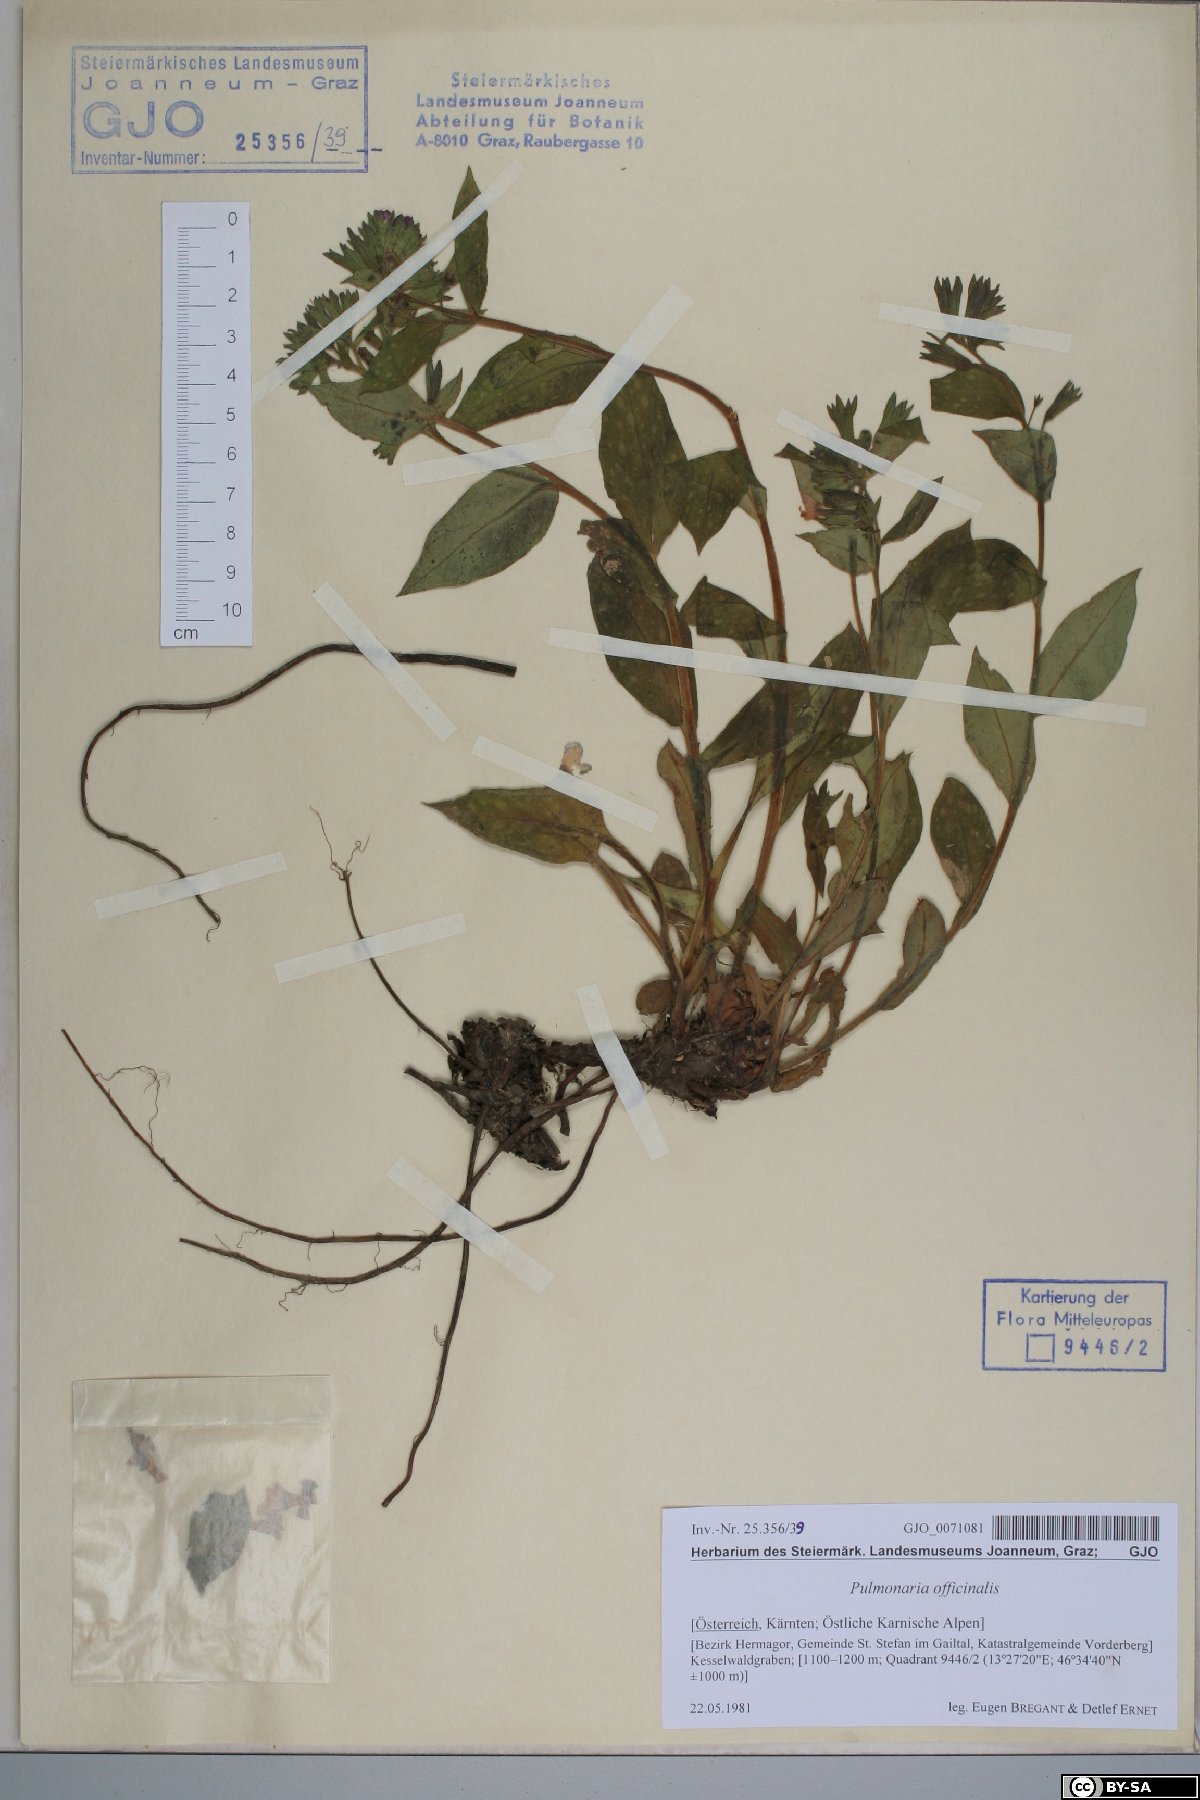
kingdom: Plantae
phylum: Tracheophyta
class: Magnoliopsida
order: Boraginales
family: Boraginaceae
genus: Pulmonaria
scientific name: Pulmonaria officinalis
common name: Lungwort
